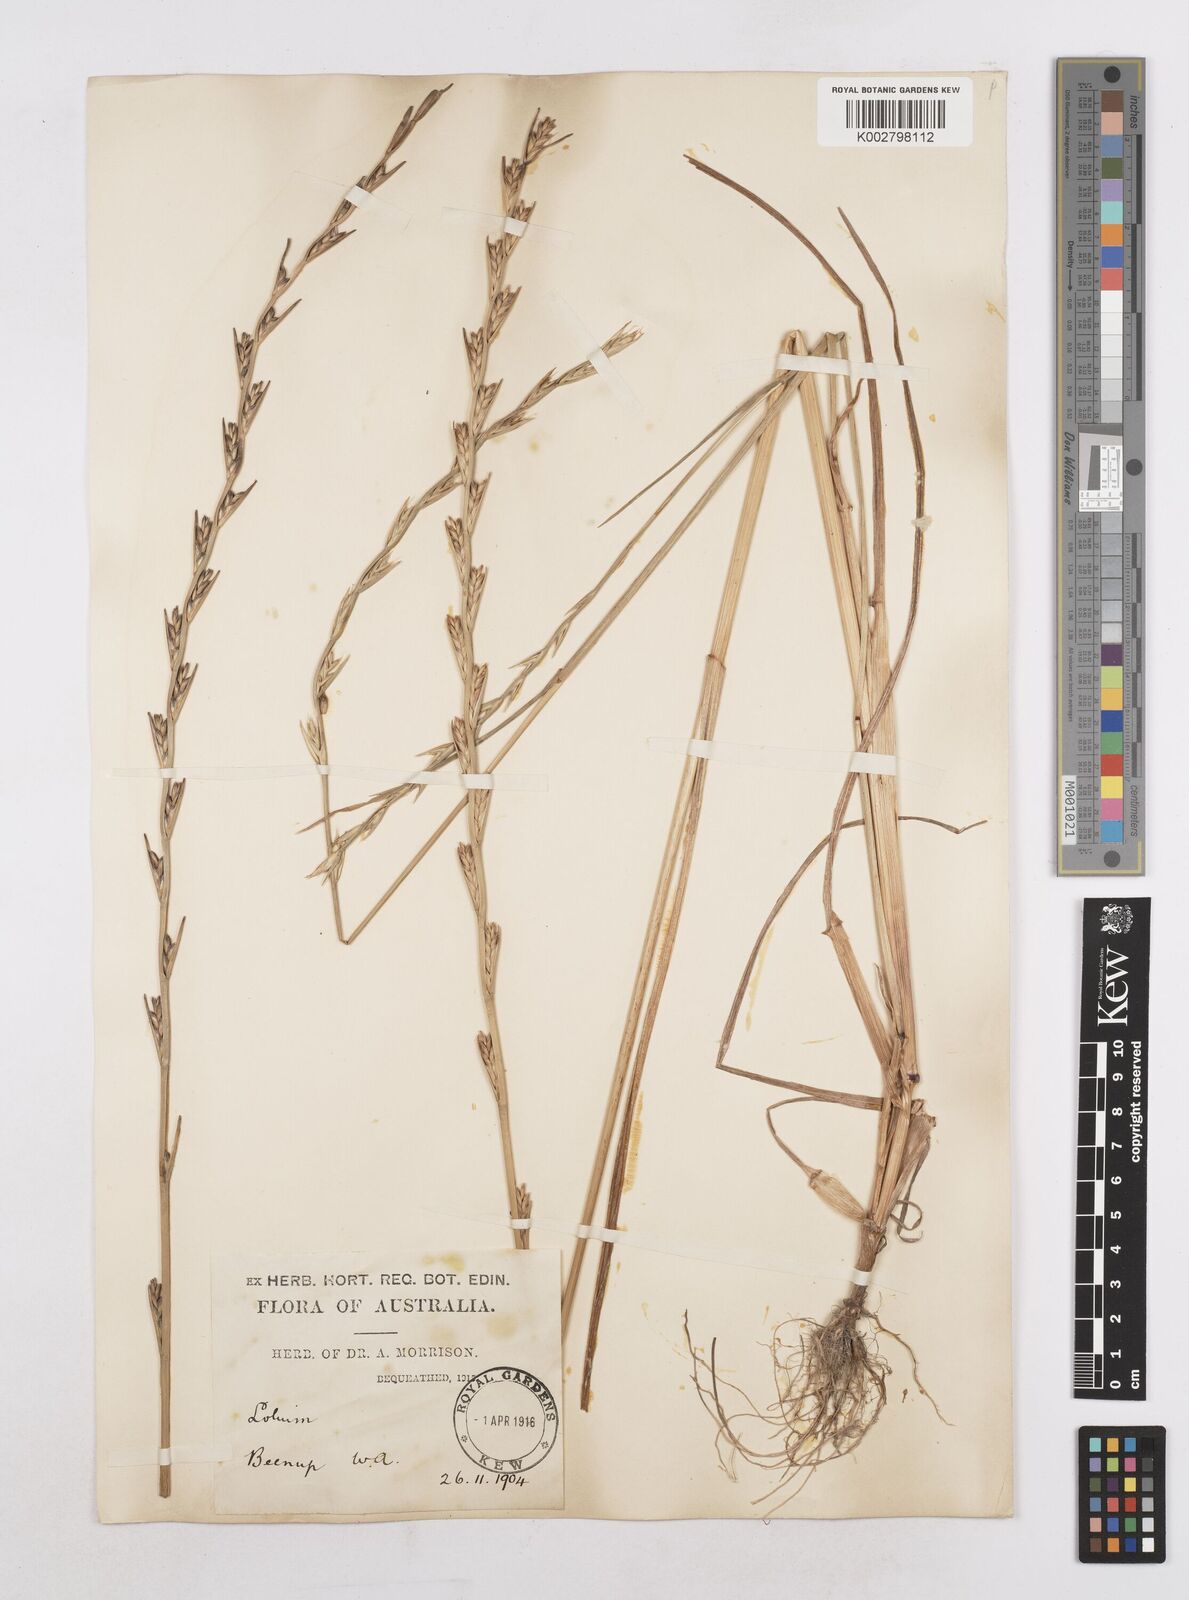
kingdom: Plantae
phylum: Tracheophyta
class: Liliopsida
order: Poales
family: Poaceae
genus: Lolium
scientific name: Lolium temulentum
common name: Darnel
